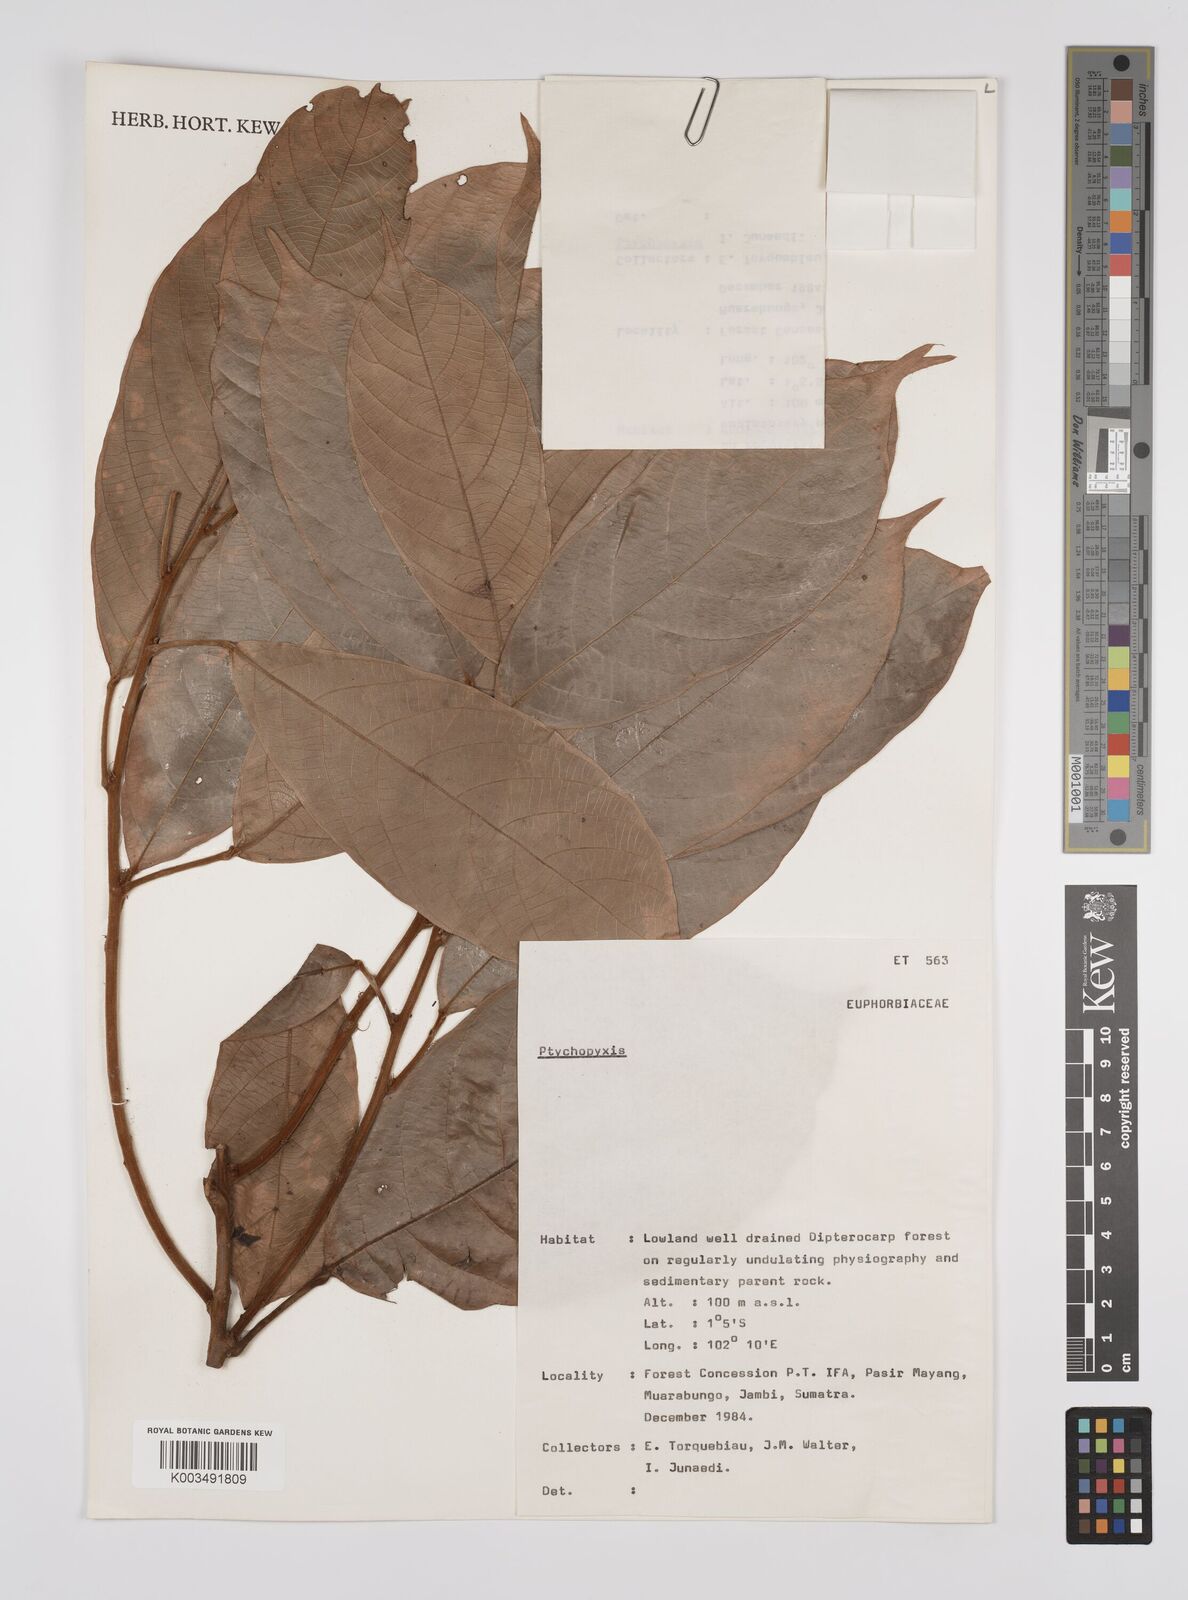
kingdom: Plantae
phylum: Tracheophyta
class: Magnoliopsida
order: Malpighiales
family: Euphorbiaceae
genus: Ptychopyxis
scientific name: Ptychopyxis
